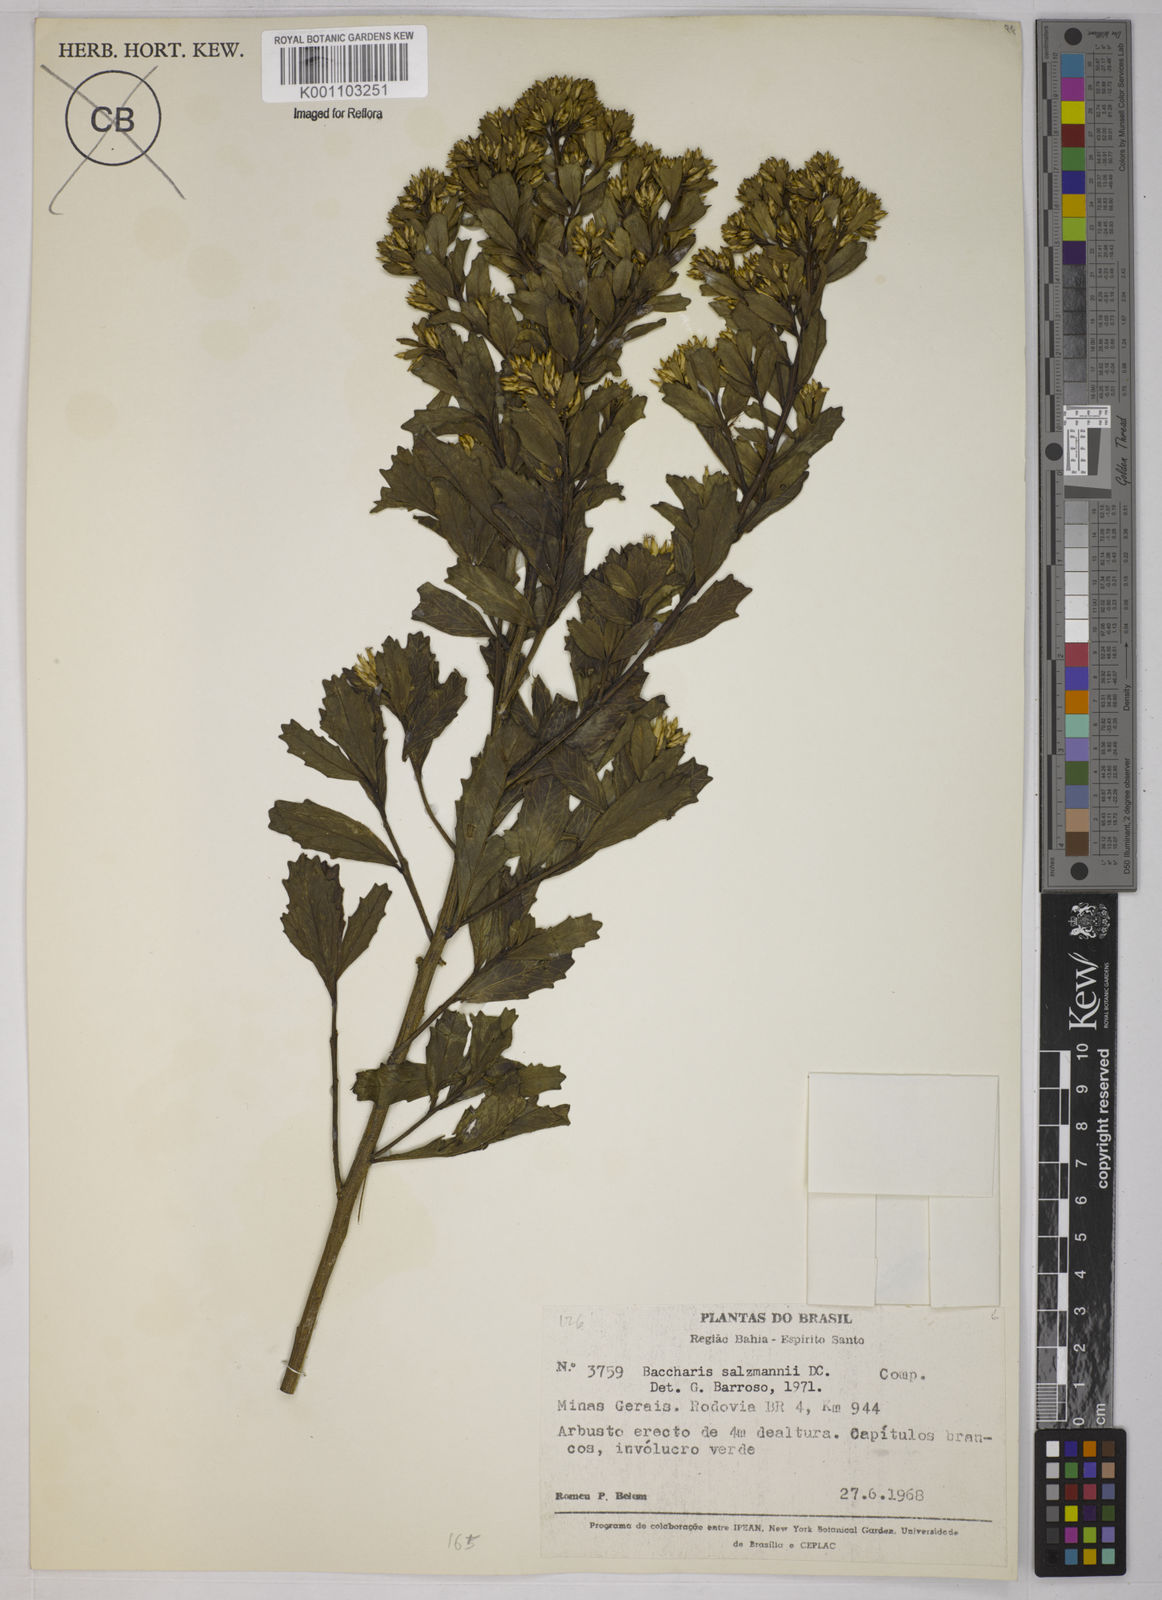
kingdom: Plantae
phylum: Tracheophyta
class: Magnoliopsida
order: Asterales
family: Asteraceae
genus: Baccharis
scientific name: Baccharis retusa
